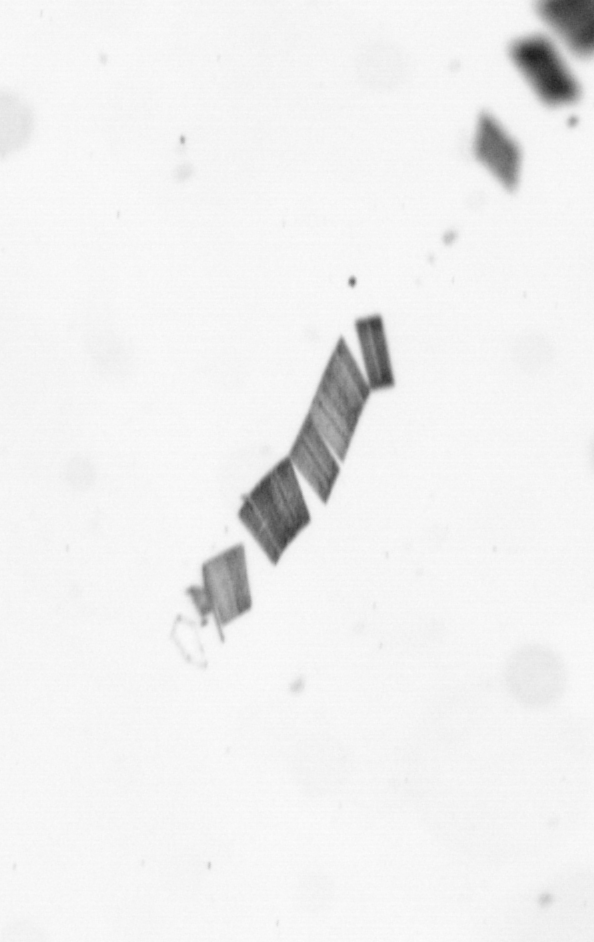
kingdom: Chromista
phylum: Ochrophyta
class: Bacillariophyceae
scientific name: Bacillariophyceae
